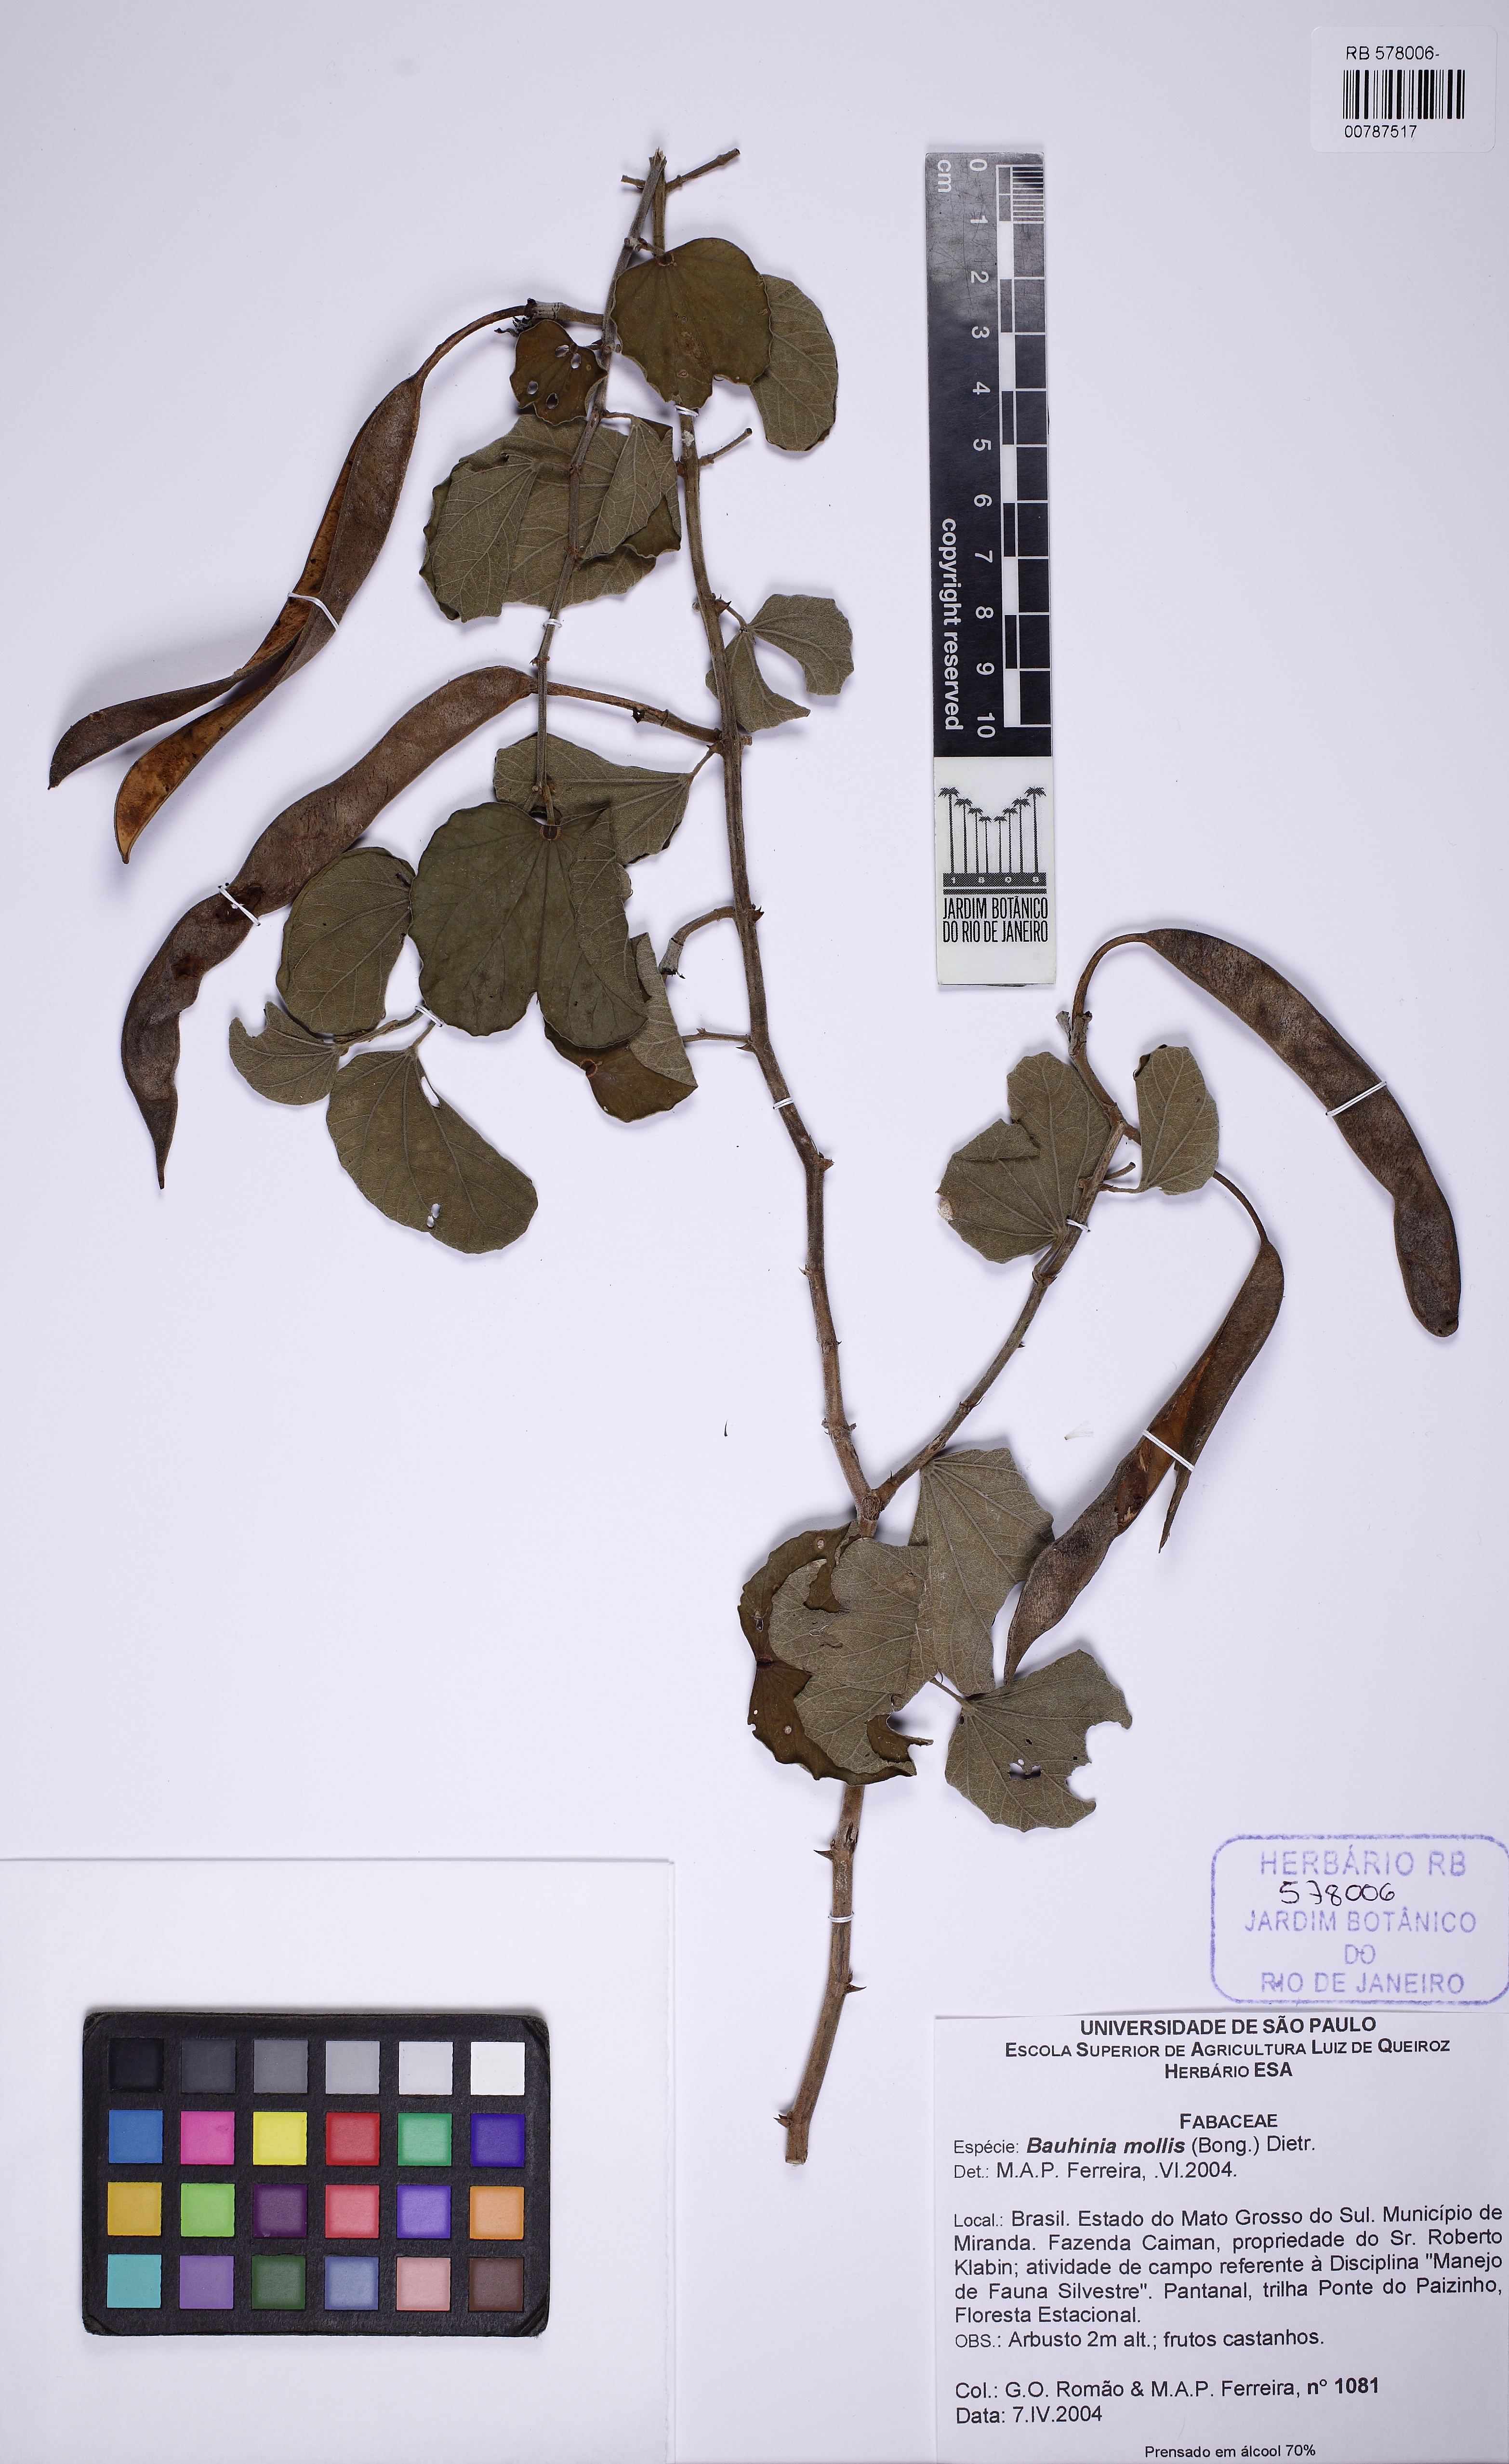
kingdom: Plantae
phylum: Tracheophyta
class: Magnoliopsida
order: Fabales
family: Fabaceae
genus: Bauhinia
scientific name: Bauhinia mollis
